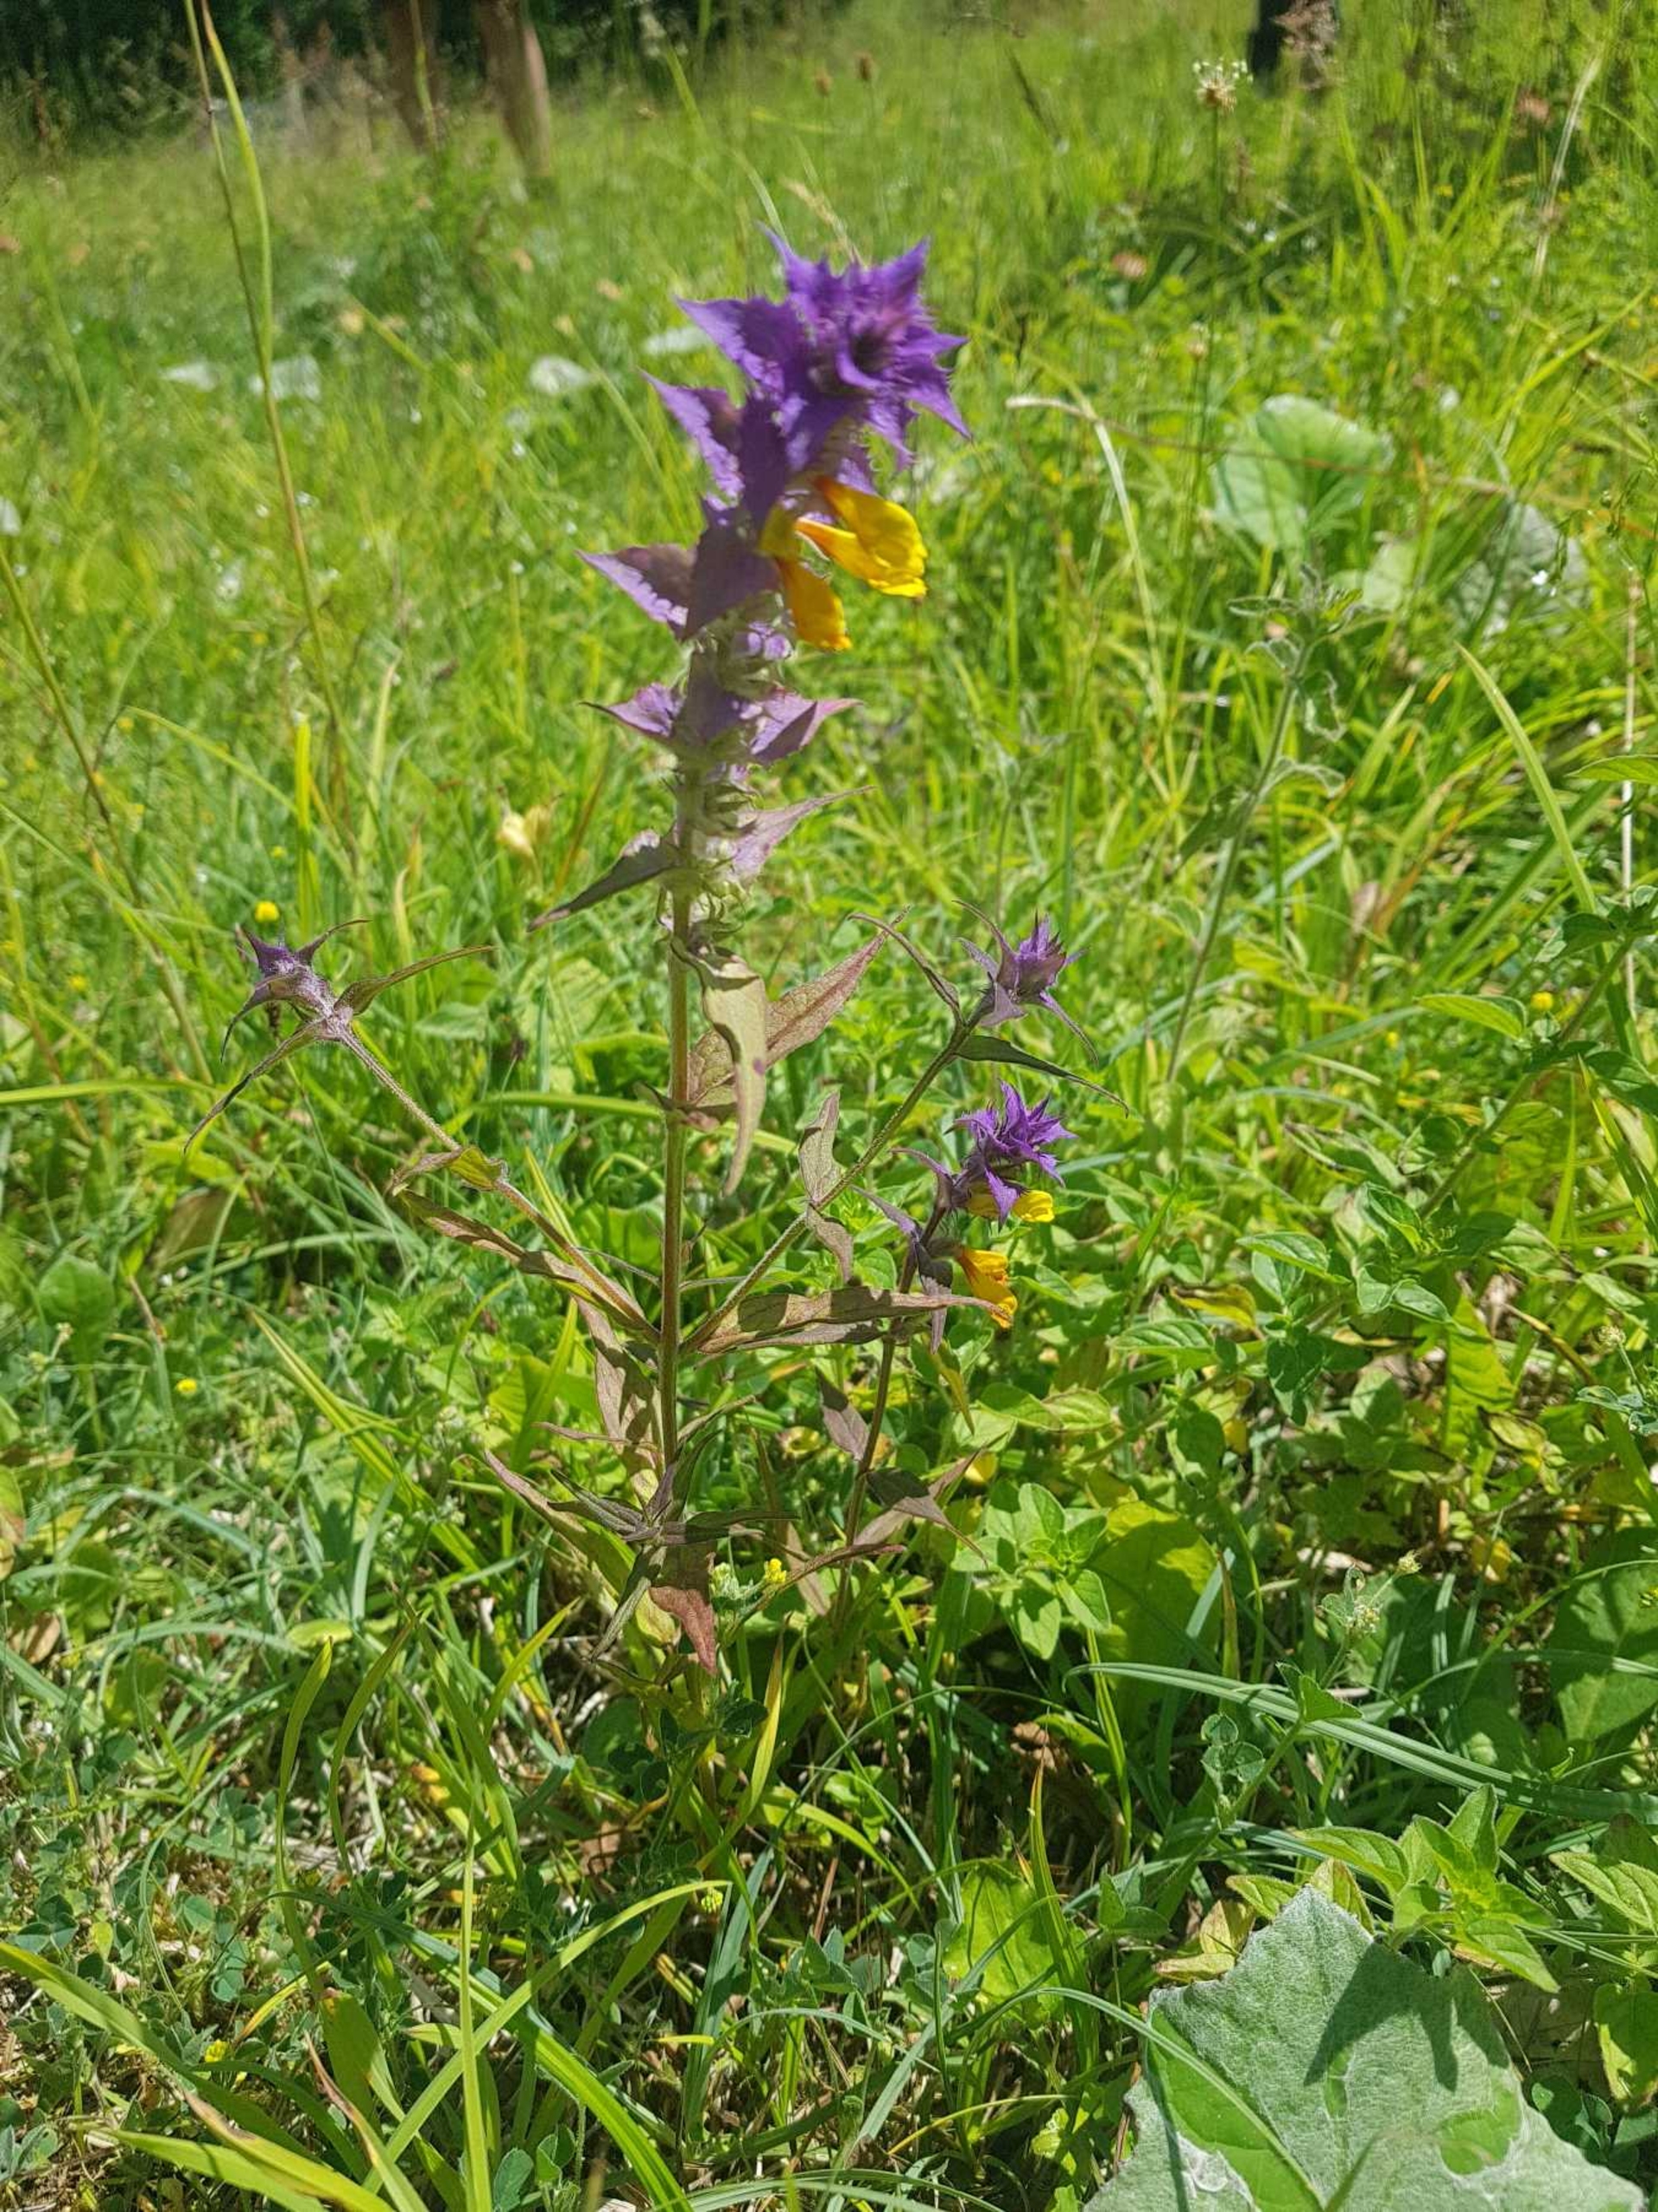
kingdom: Plantae
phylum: Tracheophyta
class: Magnoliopsida
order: Lamiales
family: Orobanchaceae
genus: Melampyrum
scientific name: Melampyrum nemorosum
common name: Blåtoppet kohvede
